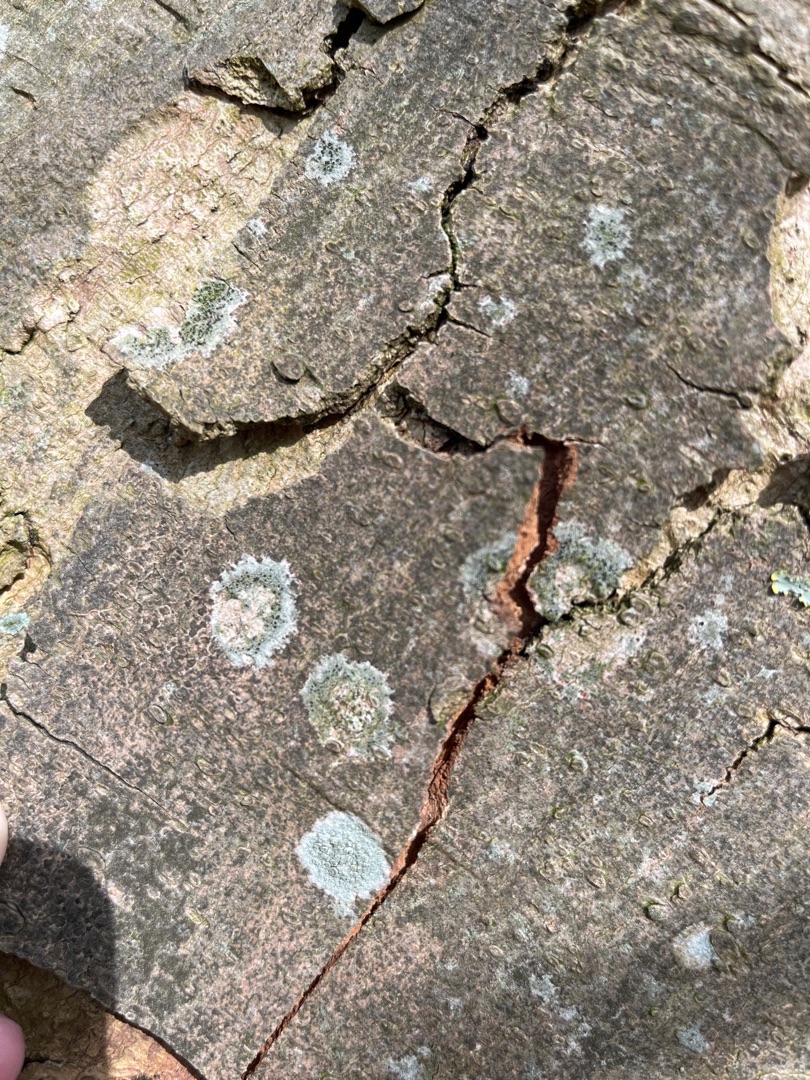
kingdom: Fungi
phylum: Ascomycota
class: Lecanoromycetes
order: Lecanorales
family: Lecanoraceae
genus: Lecidella
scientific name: Lecidella elaeochroma
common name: Grågrøn skivelav
